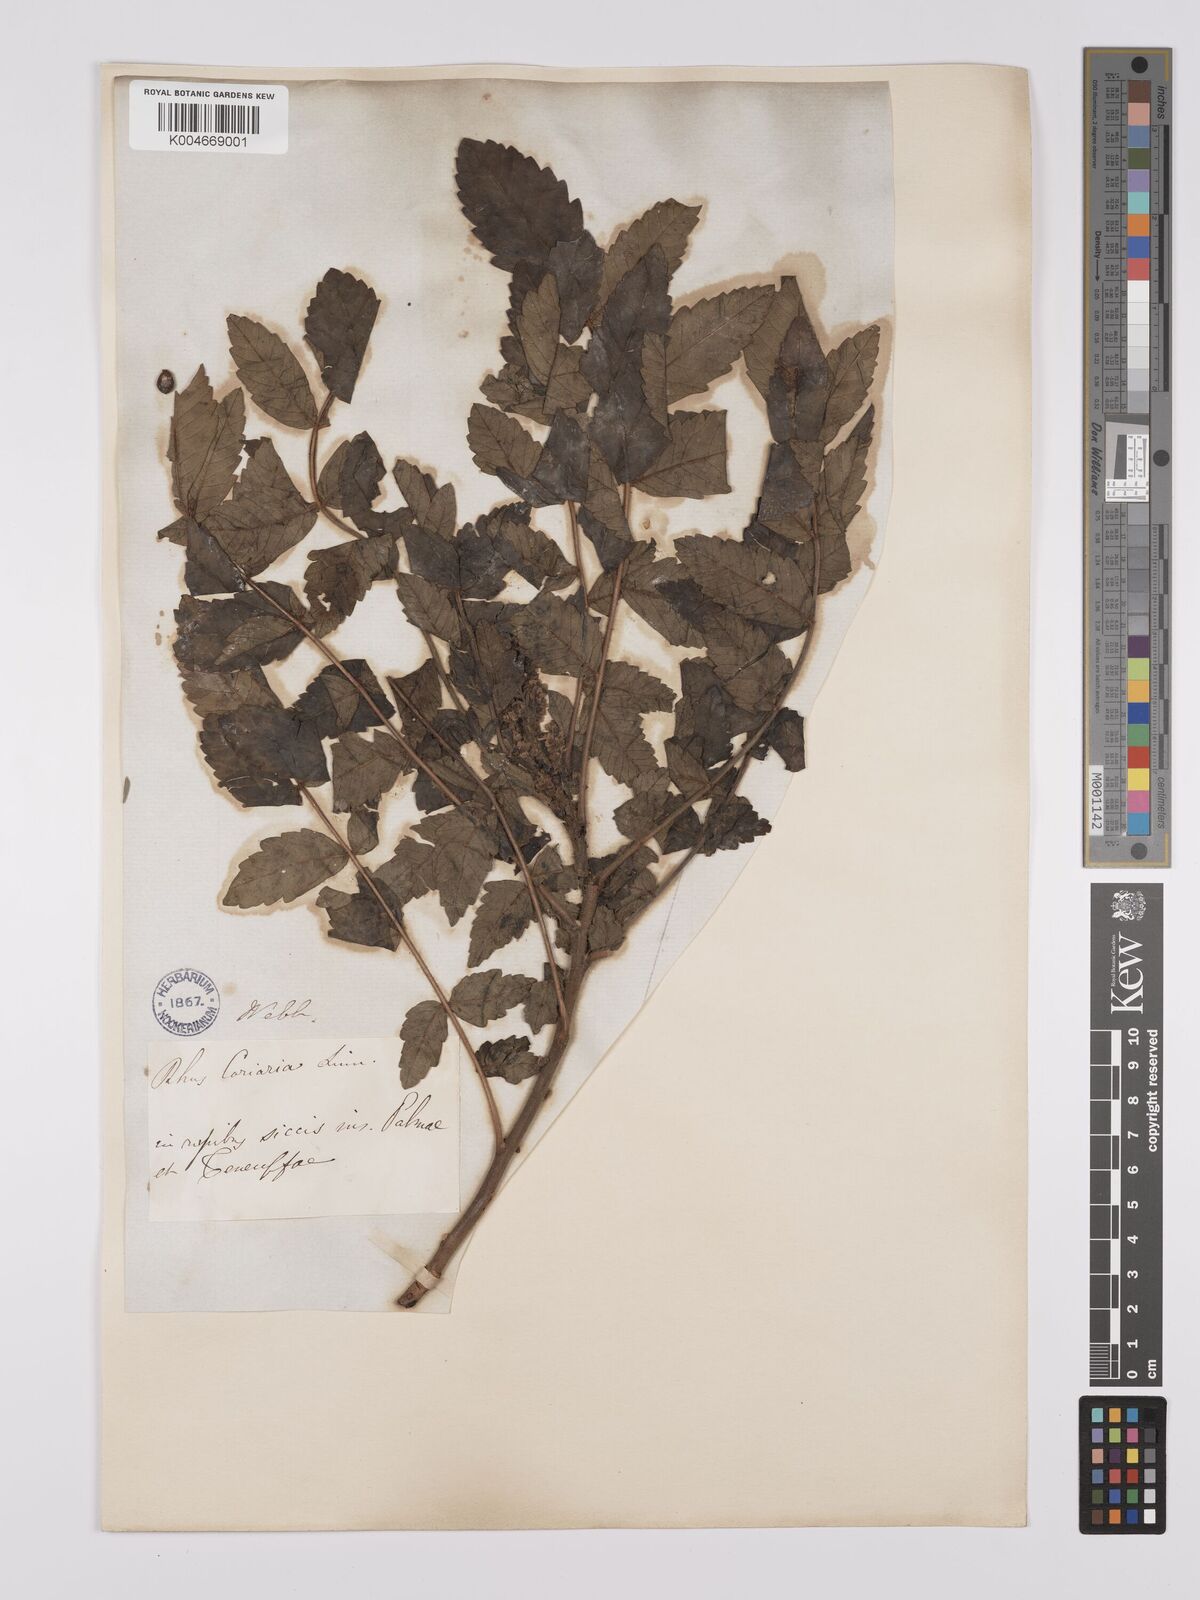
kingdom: Plantae
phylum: Tracheophyta
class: Magnoliopsida
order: Sapindales
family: Anacardiaceae
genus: Rhus
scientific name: Rhus coriaria
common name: Tanner's sumach
